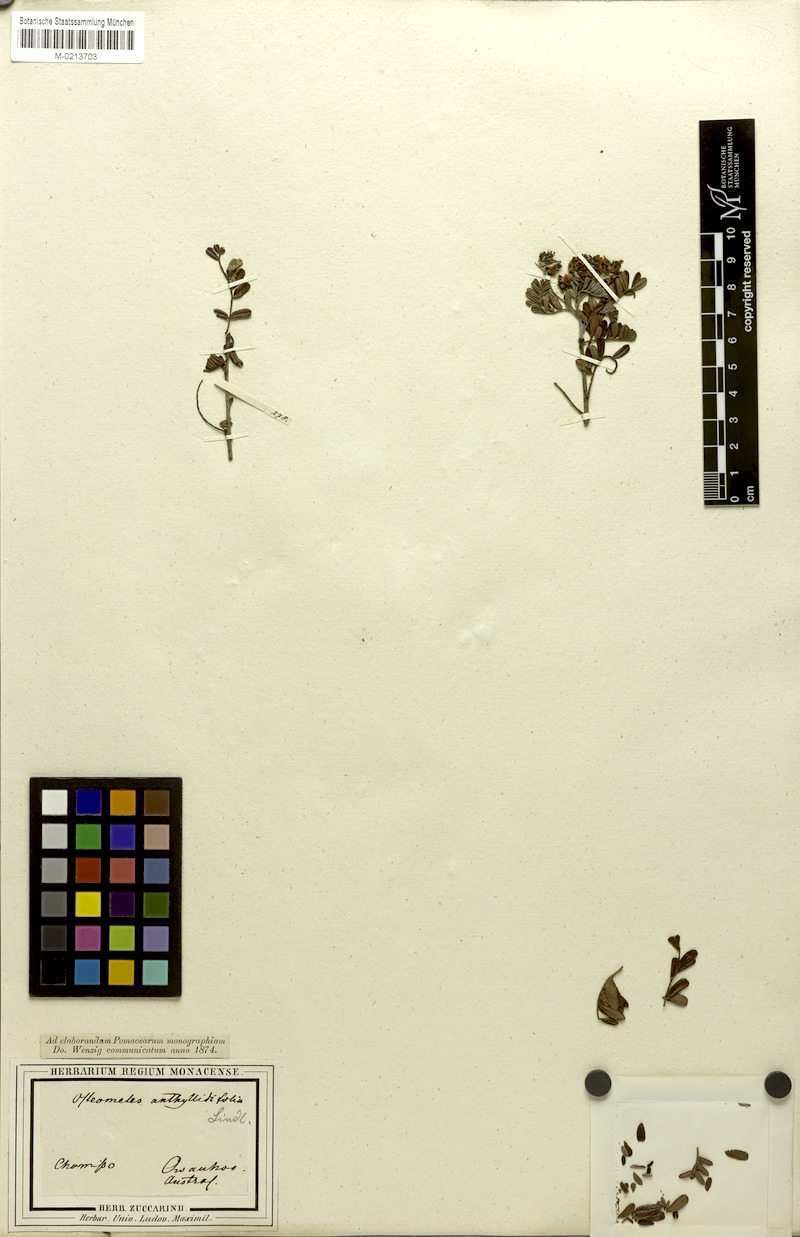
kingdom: Plantae
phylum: Tracheophyta
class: Magnoliopsida
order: Rosales
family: Rosaceae
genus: Osteomeles
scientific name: Osteomeles anthyllidifolia
